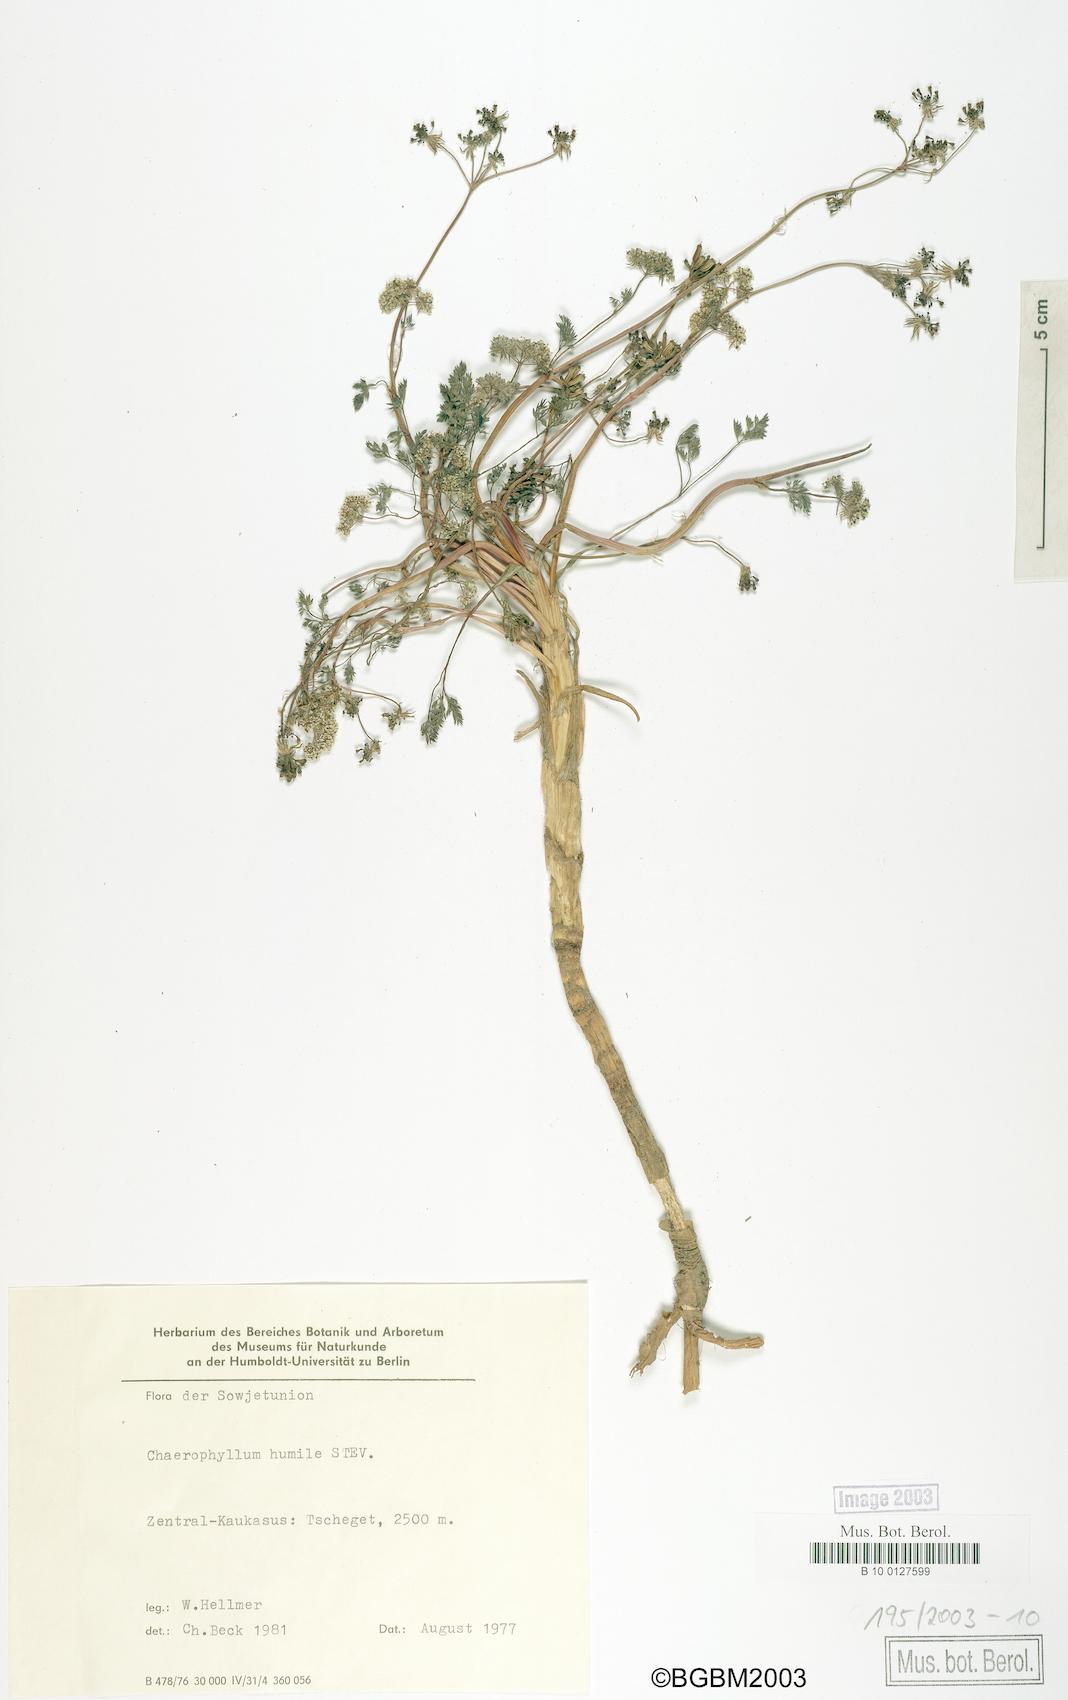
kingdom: Plantae
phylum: Tracheophyta
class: Magnoliopsida
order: Apiales
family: Apiaceae
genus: Chaerophyllum
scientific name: Chaerophyllum humile
